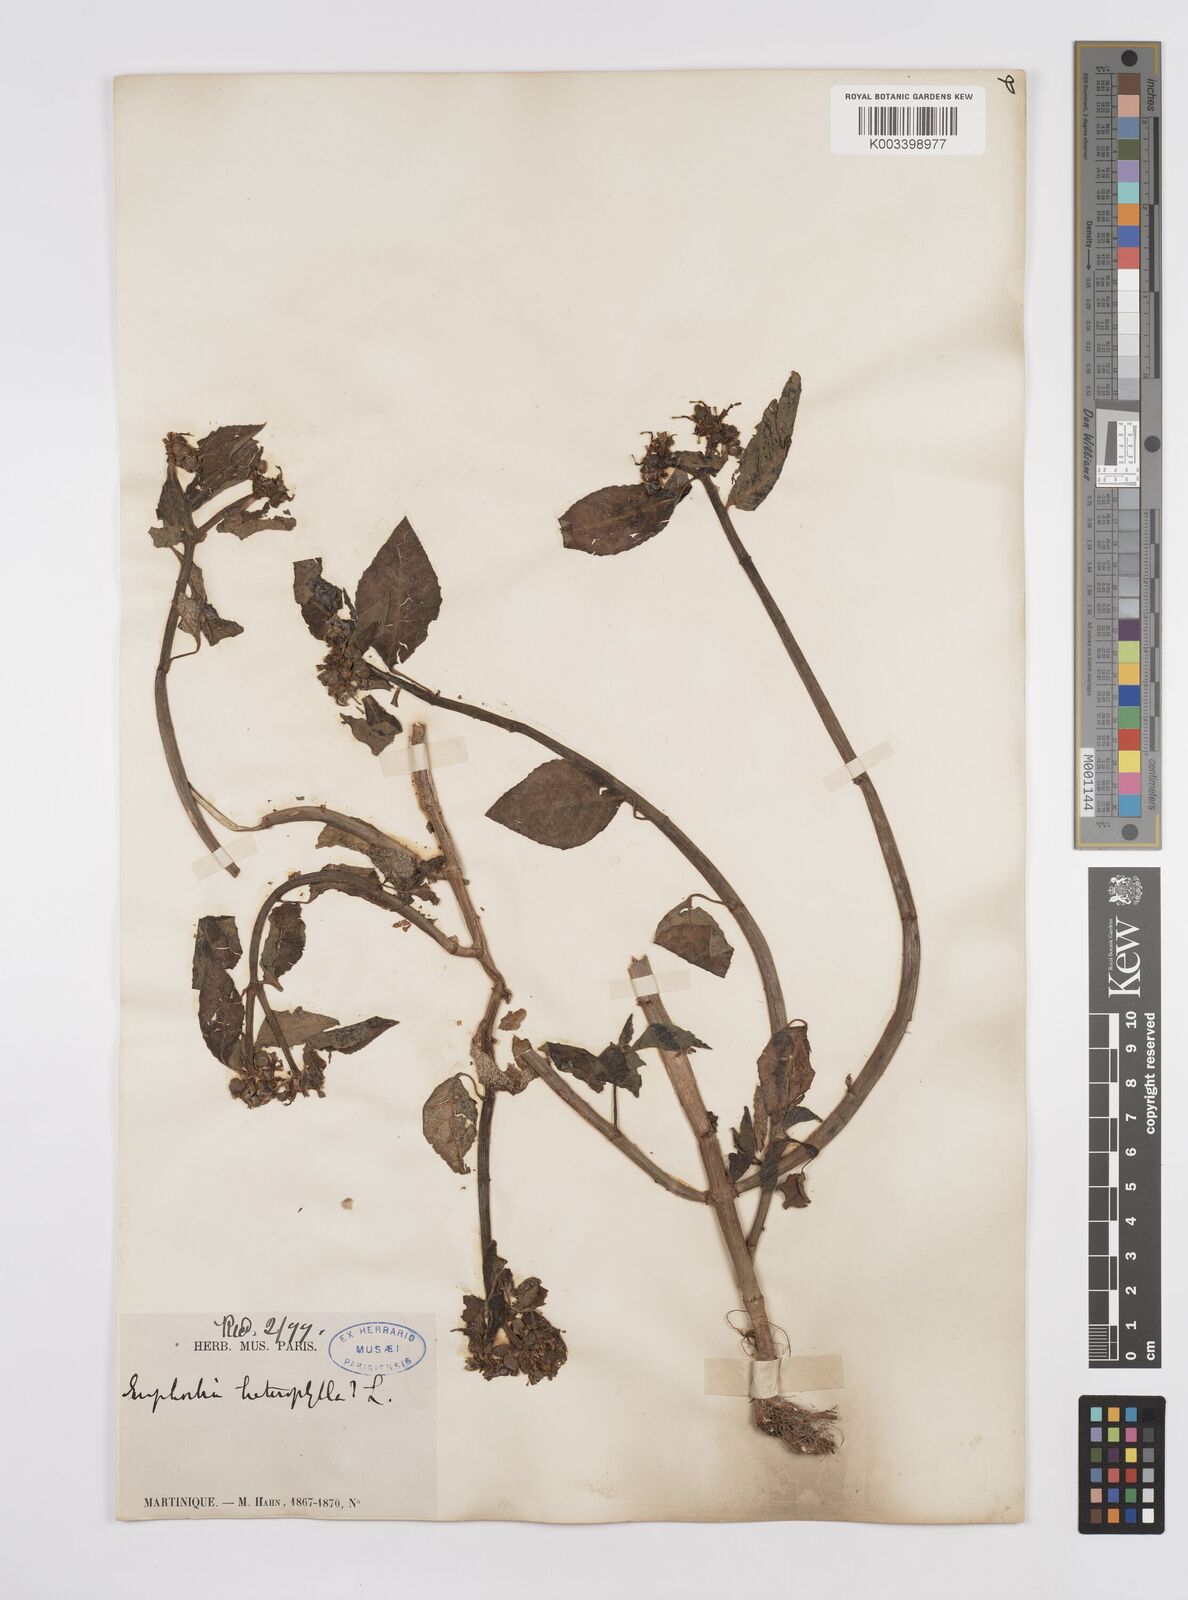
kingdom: Plantae
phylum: Tracheophyta
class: Magnoliopsida
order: Malpighiales
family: Euphorbiaceae
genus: Euphorbia
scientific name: Euphorbia heterophylla
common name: Mexican fireplant
